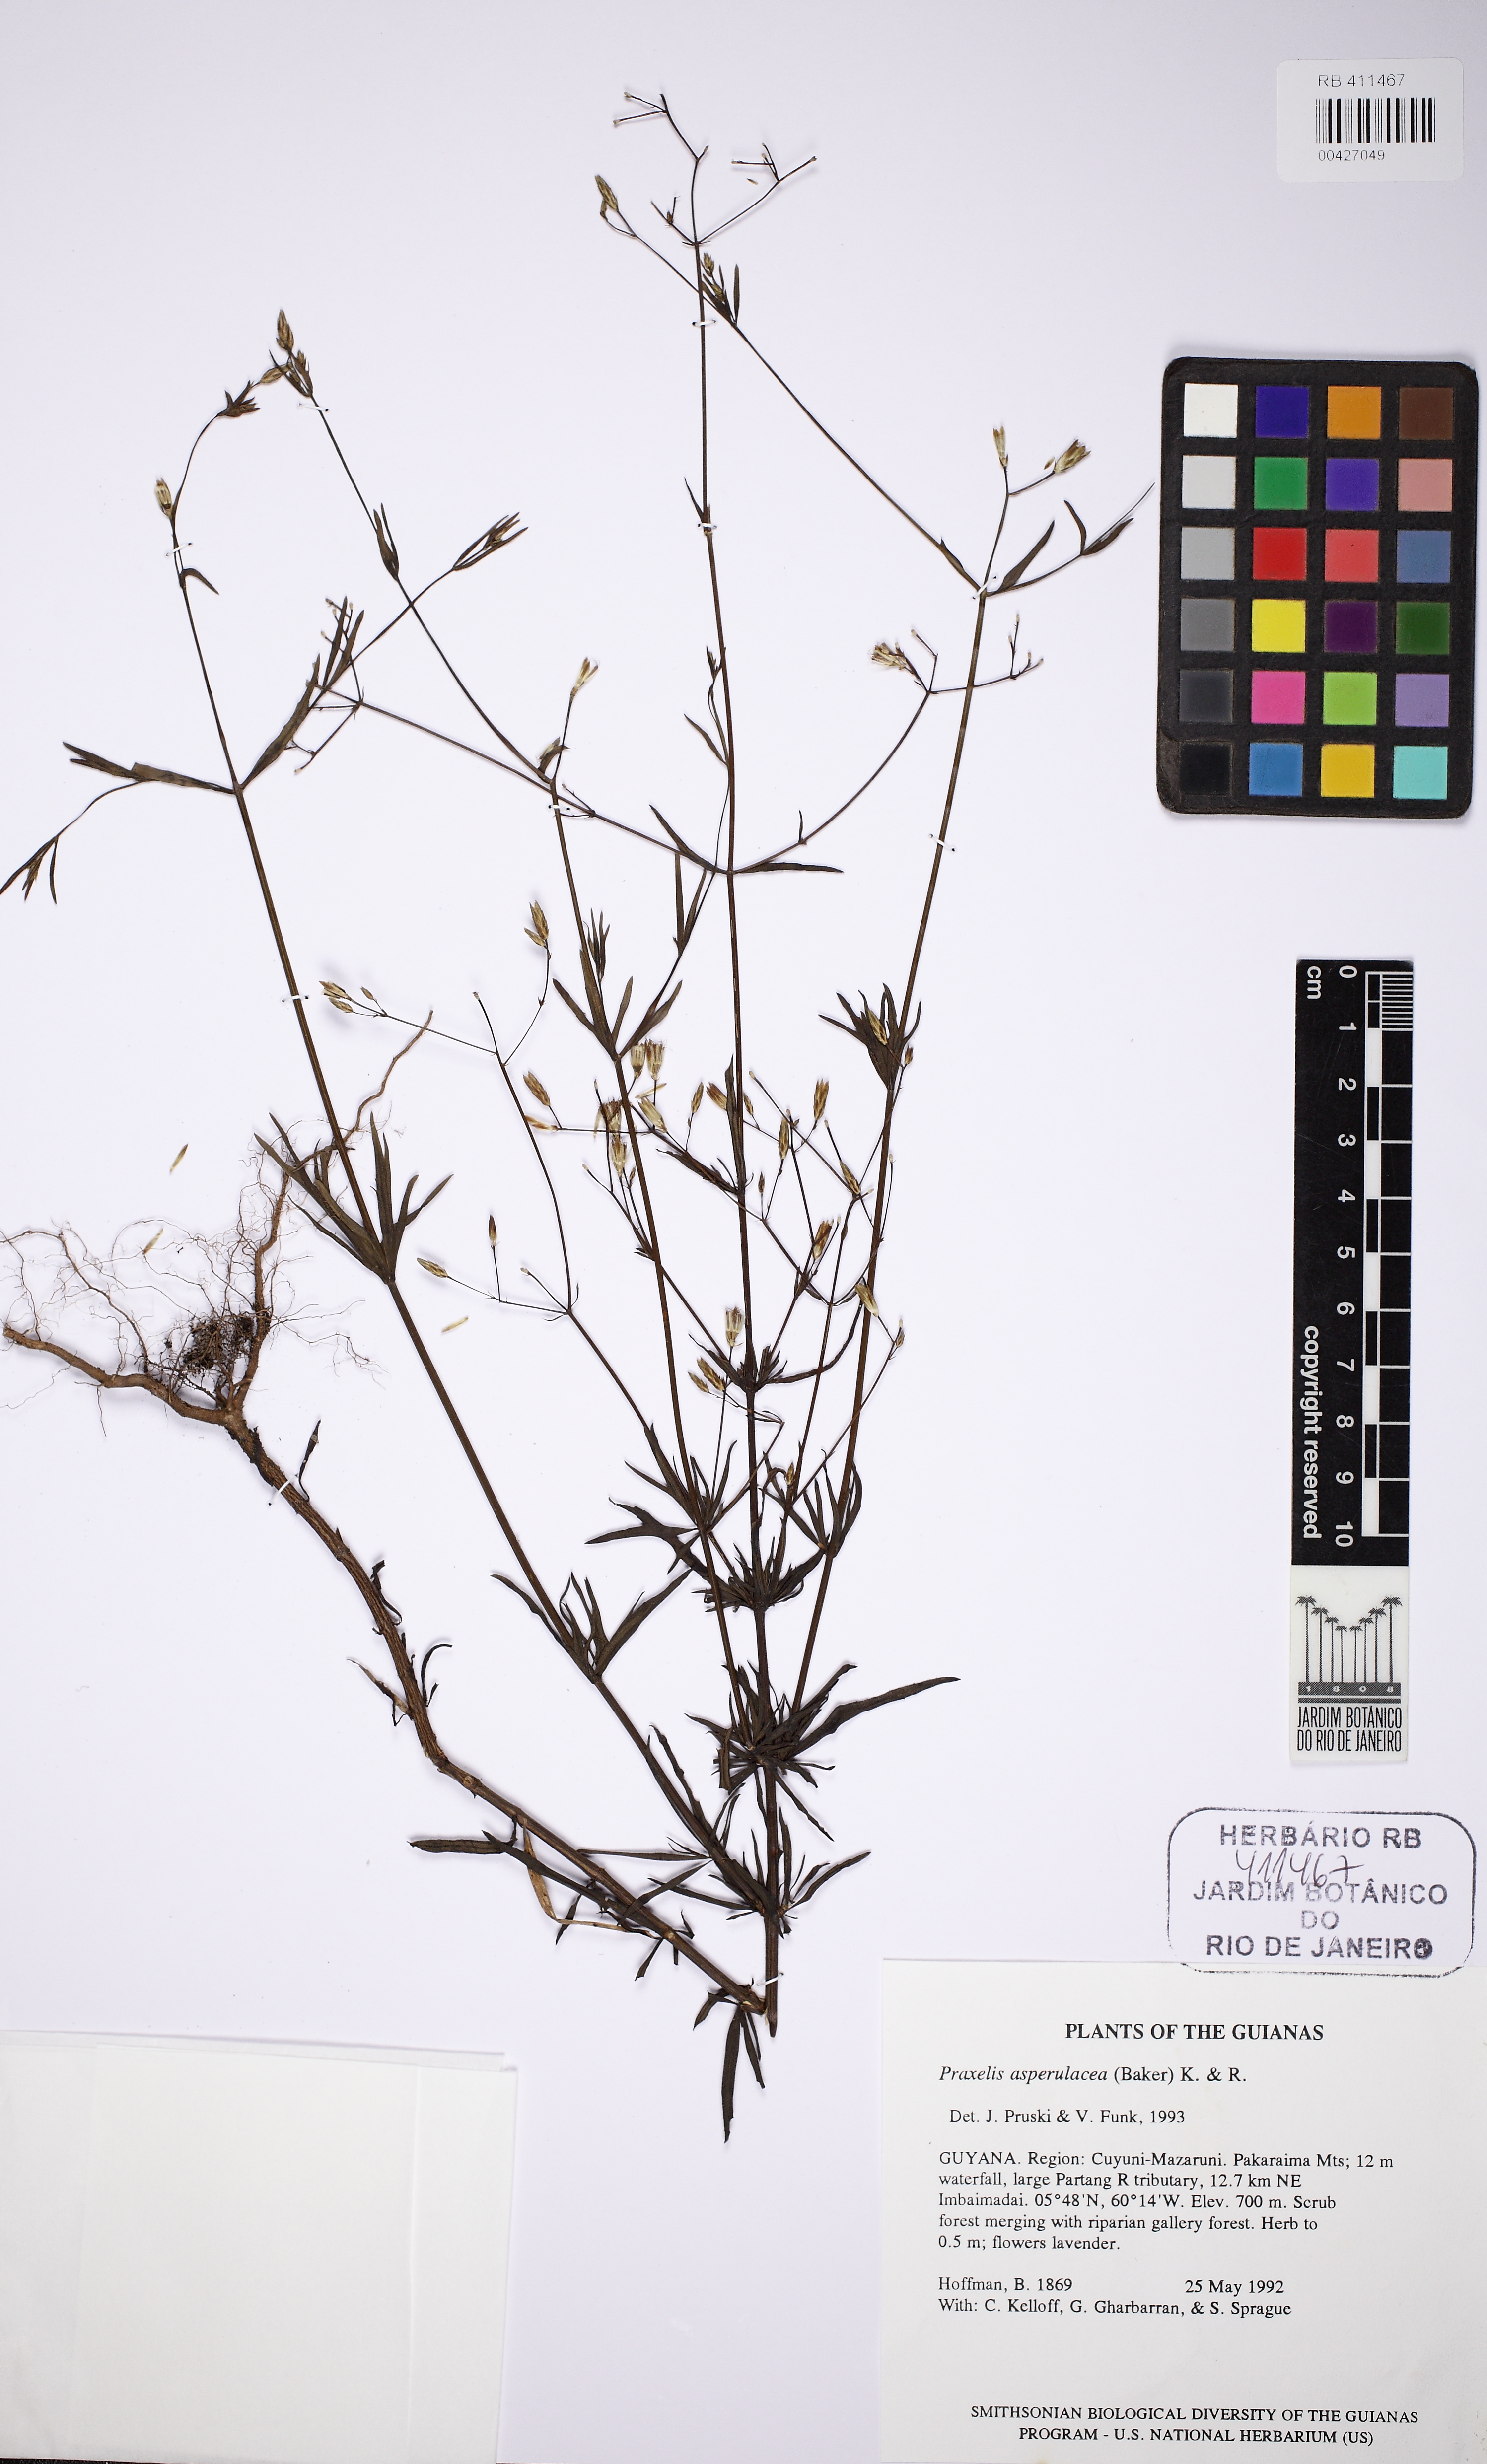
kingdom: Plantae
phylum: Tracheophyta
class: Magnoliopsida
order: Asterales
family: Asteraceae
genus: Praxelis
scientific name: Praxelis asperulacea
